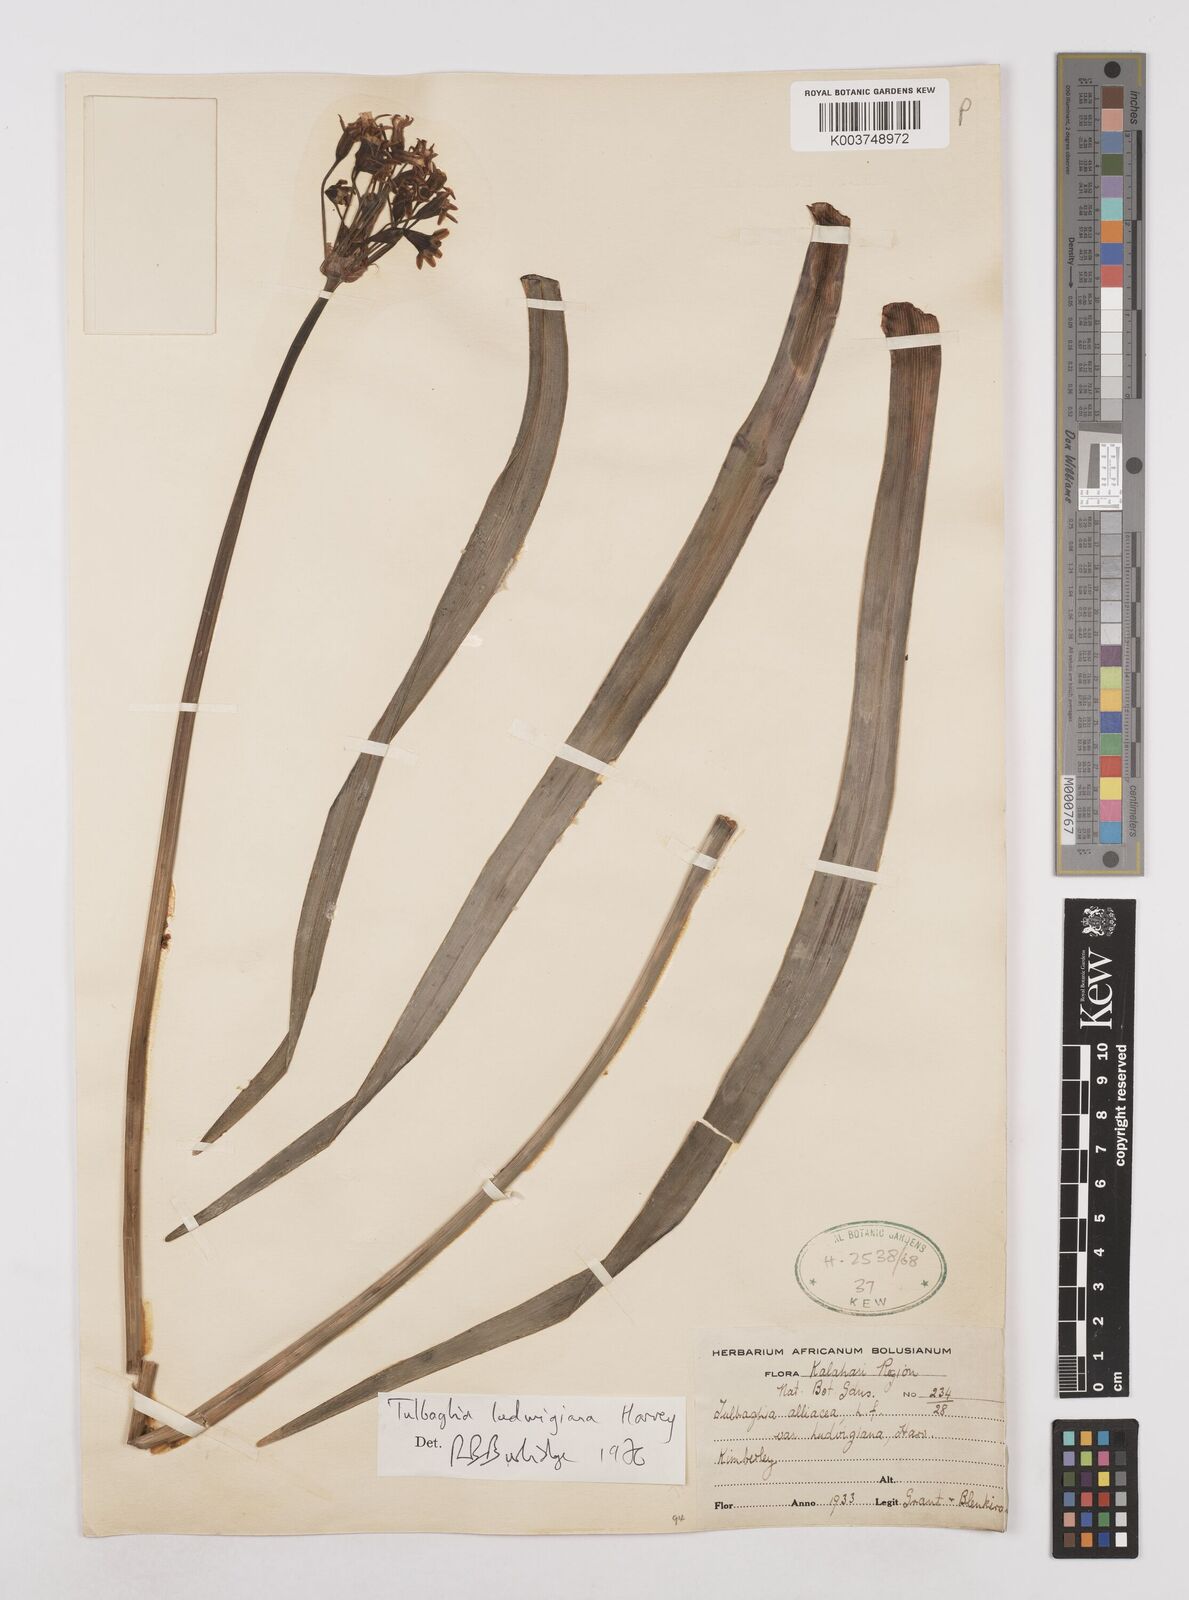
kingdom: Plantae
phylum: Tracheophyta
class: Liliopsida
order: Asparagales
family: Amaryllidaceae
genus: Tulbaghia
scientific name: Tulbaghia ludwigiana
